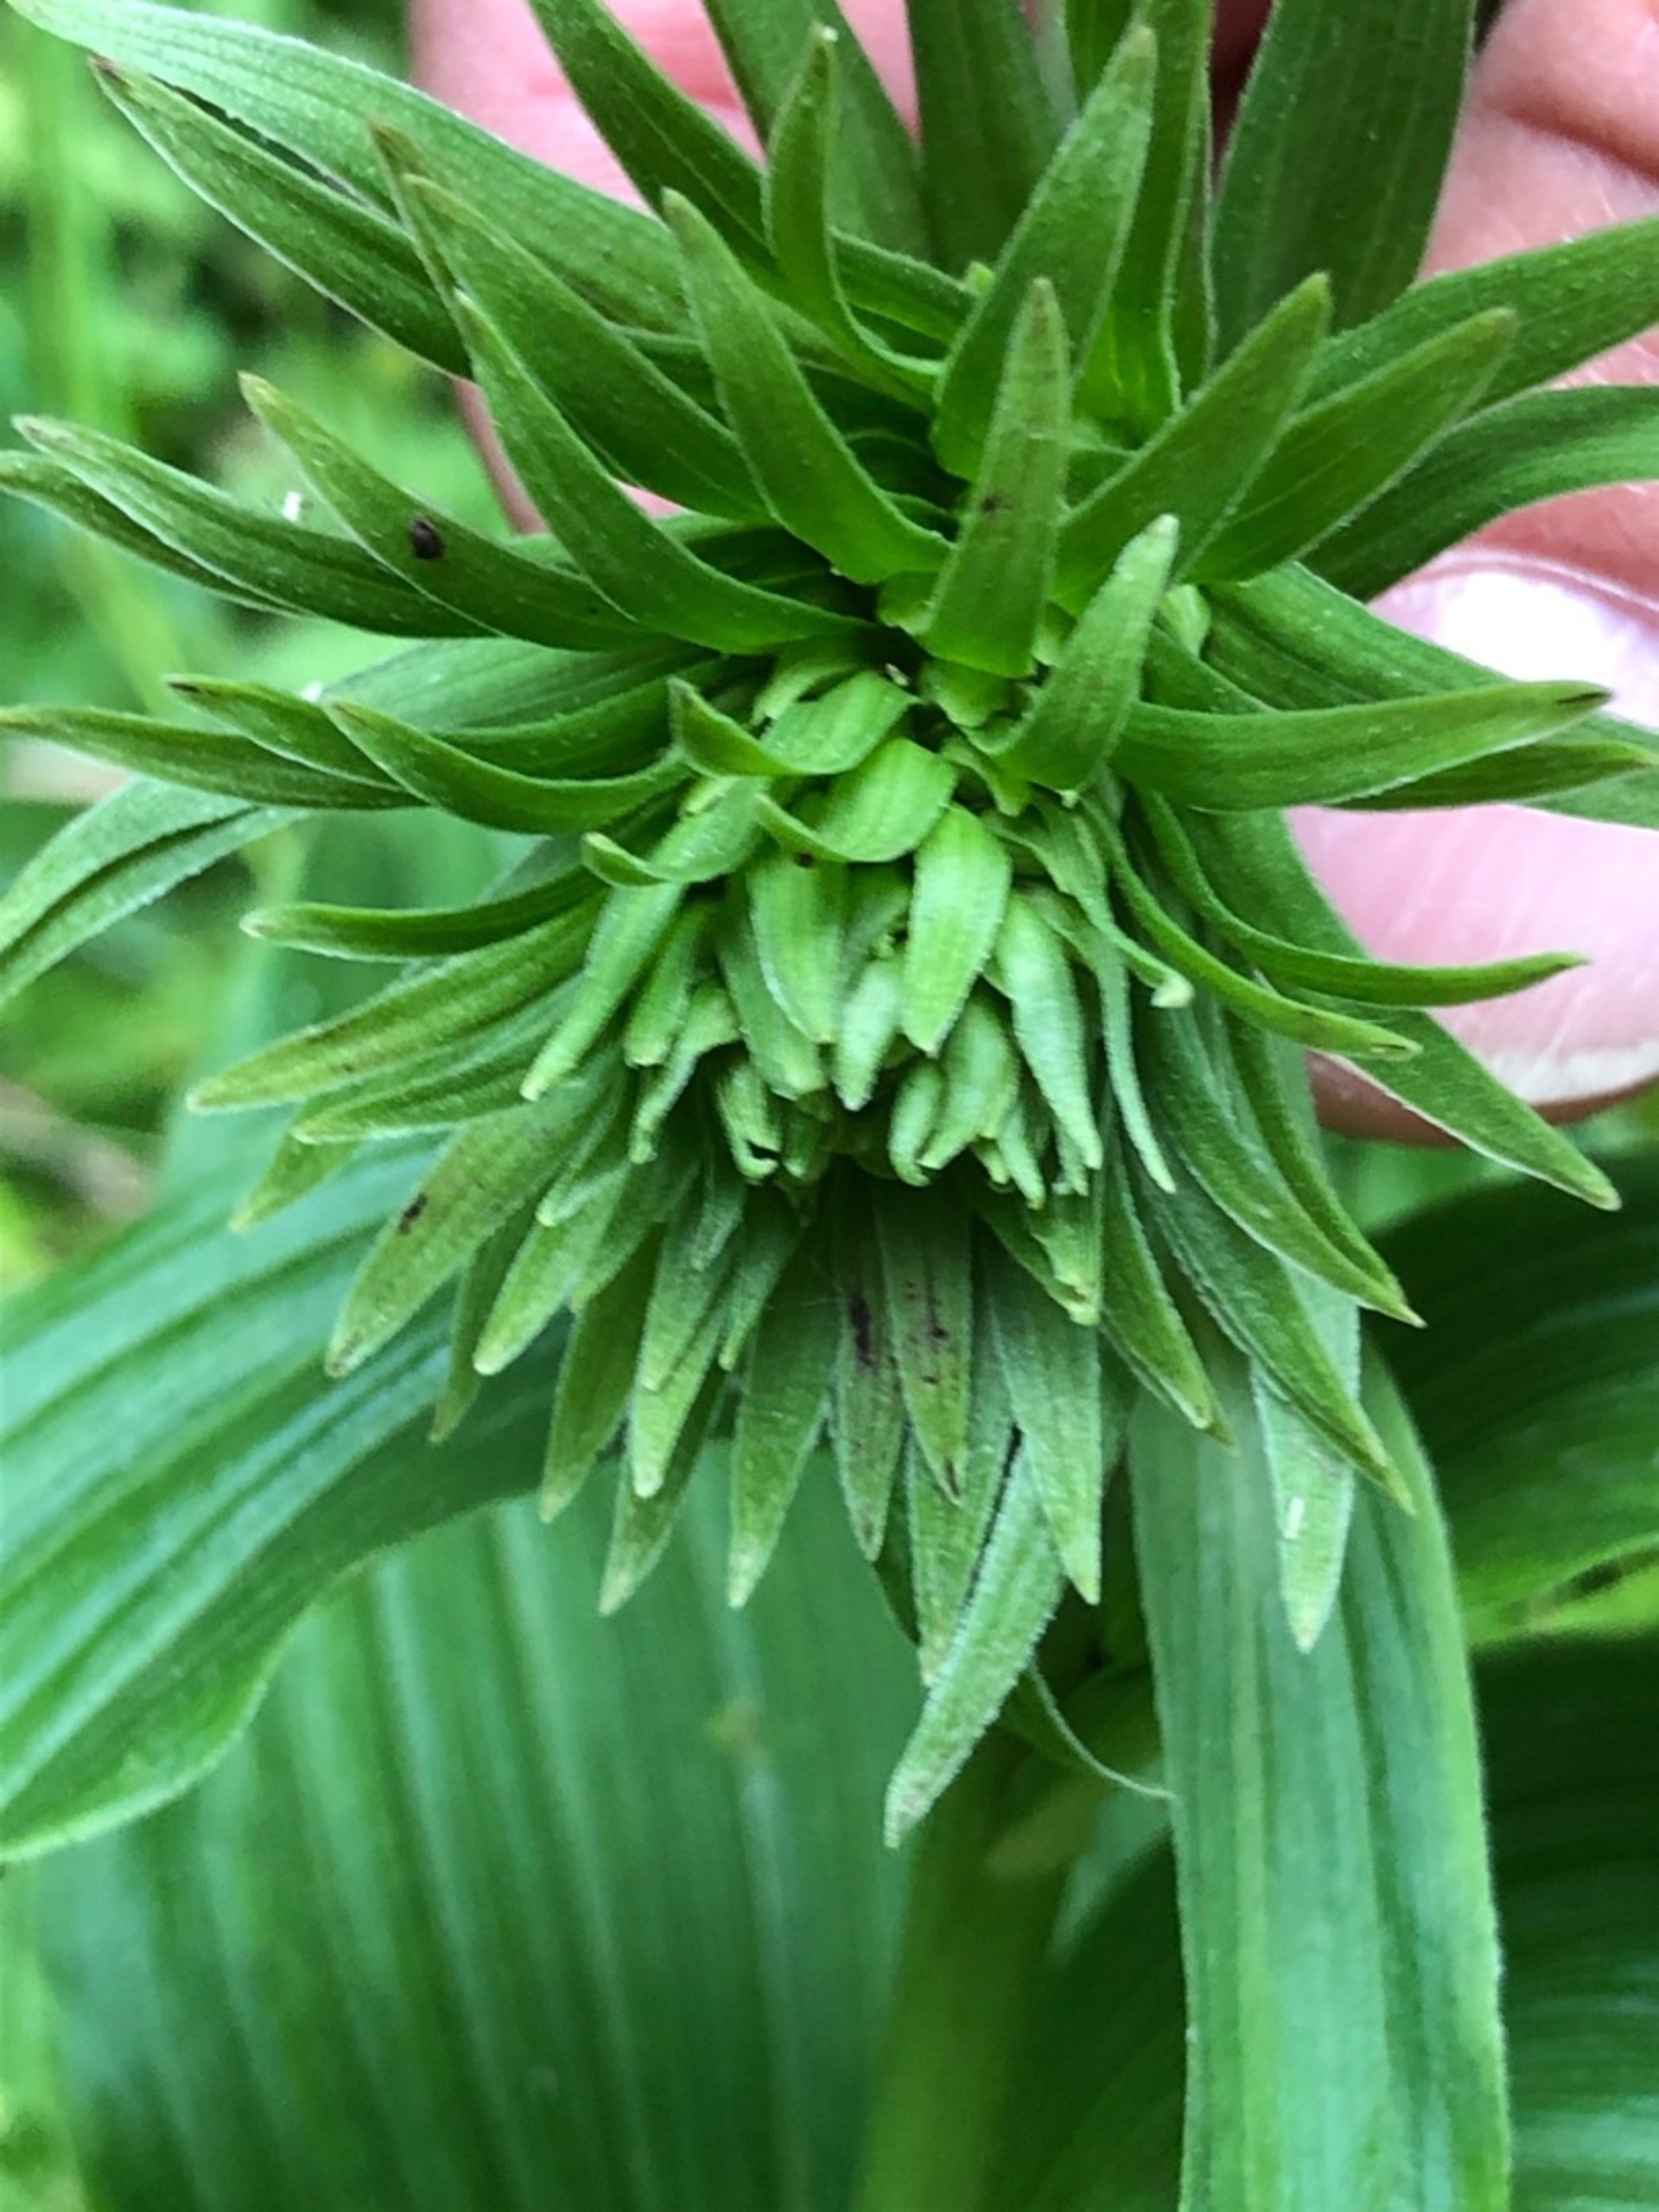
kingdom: Plantae
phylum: Tracheophyta
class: Liliopsida
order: Asparagales
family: Orchidaceae
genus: Epipactis
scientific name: Epipactis helleborine
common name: Skov-hullæbe
